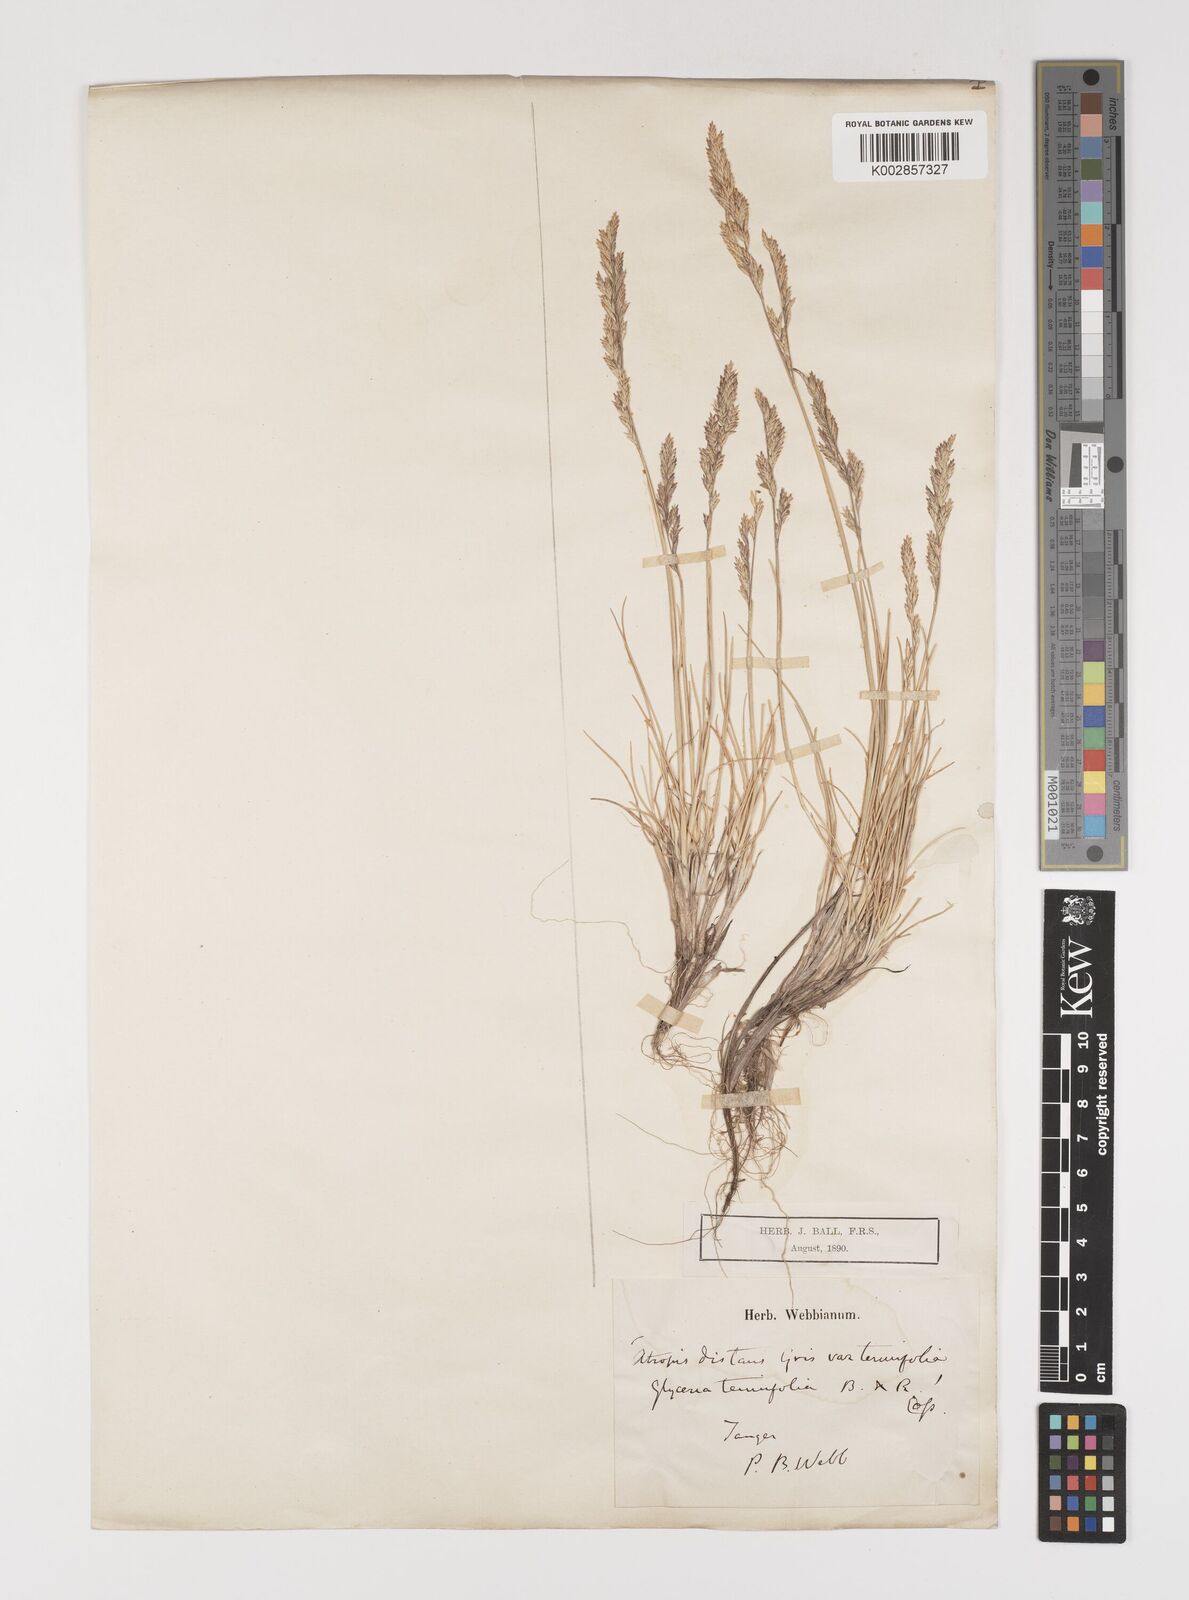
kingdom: Plantae
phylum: Tracheophyta
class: Liliopsida
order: Poales
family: Poaceae
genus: Puccinellia
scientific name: Puccinellia festuciformis
